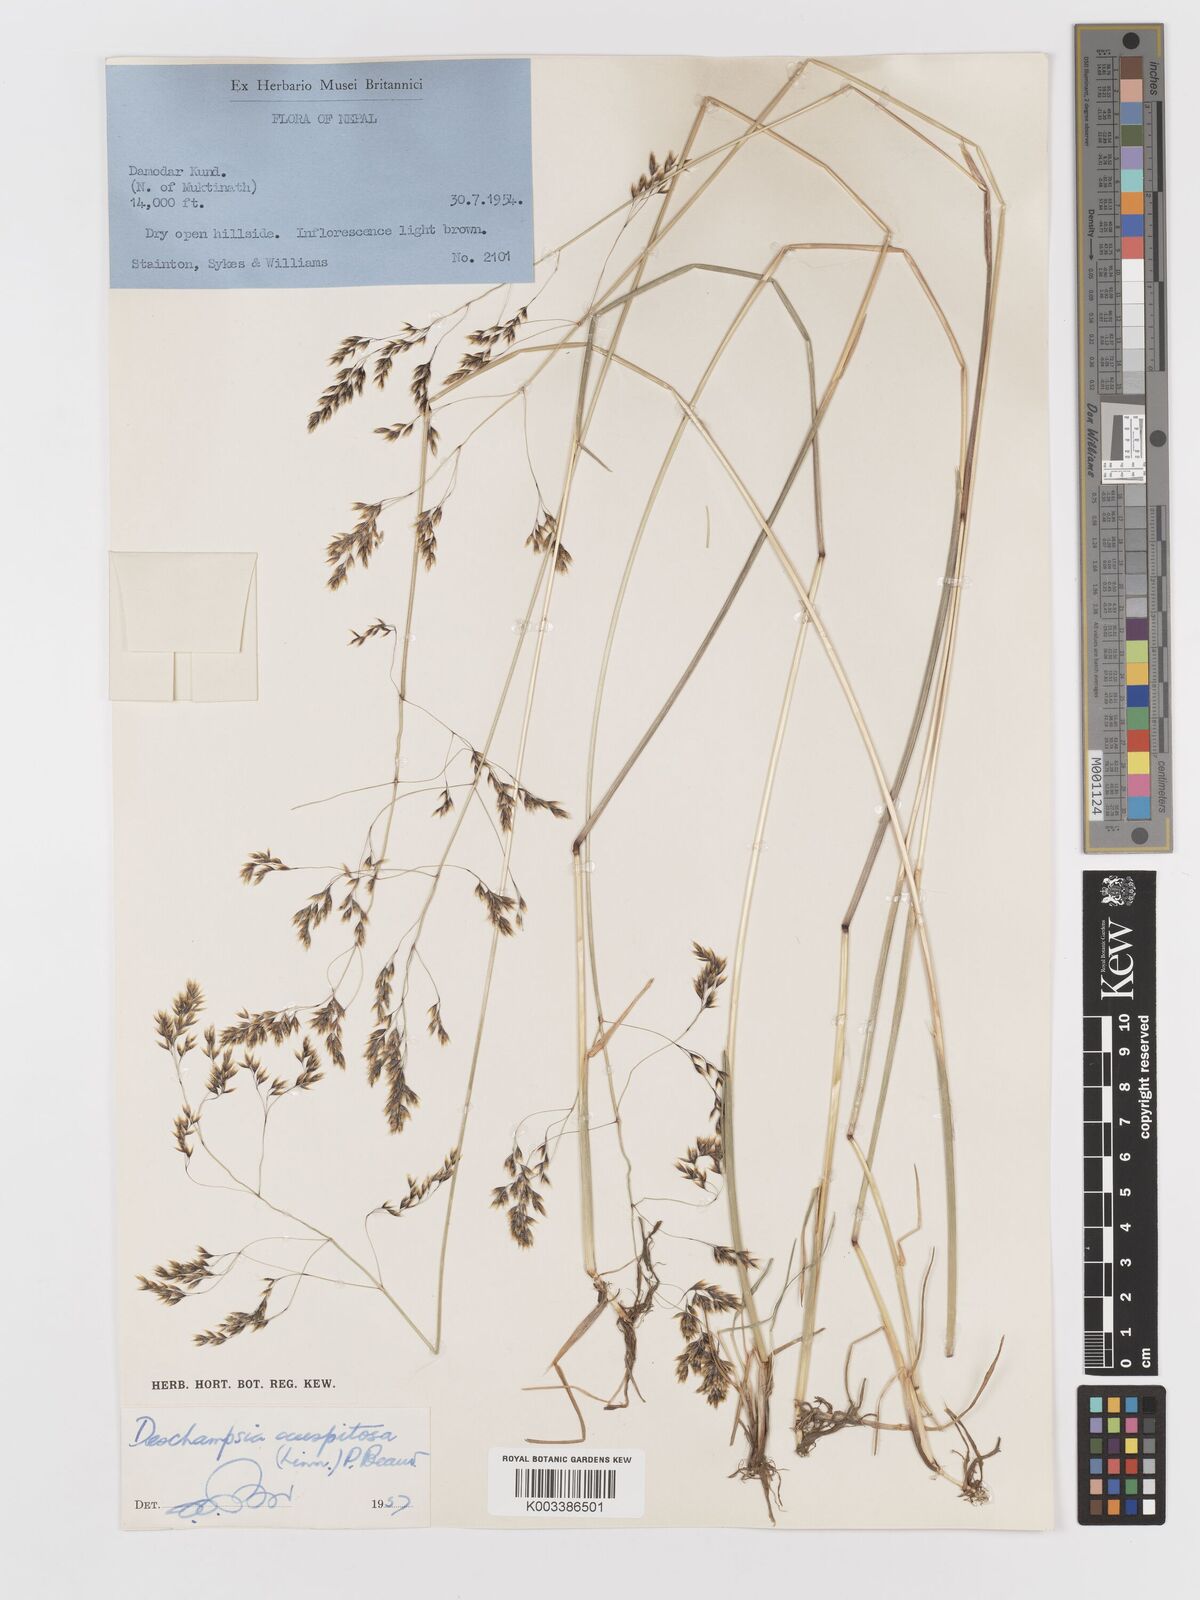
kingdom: Plantae
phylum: Tracheophyta
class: Liliopsida
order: Poales
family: Poaceae
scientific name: Poaceae
